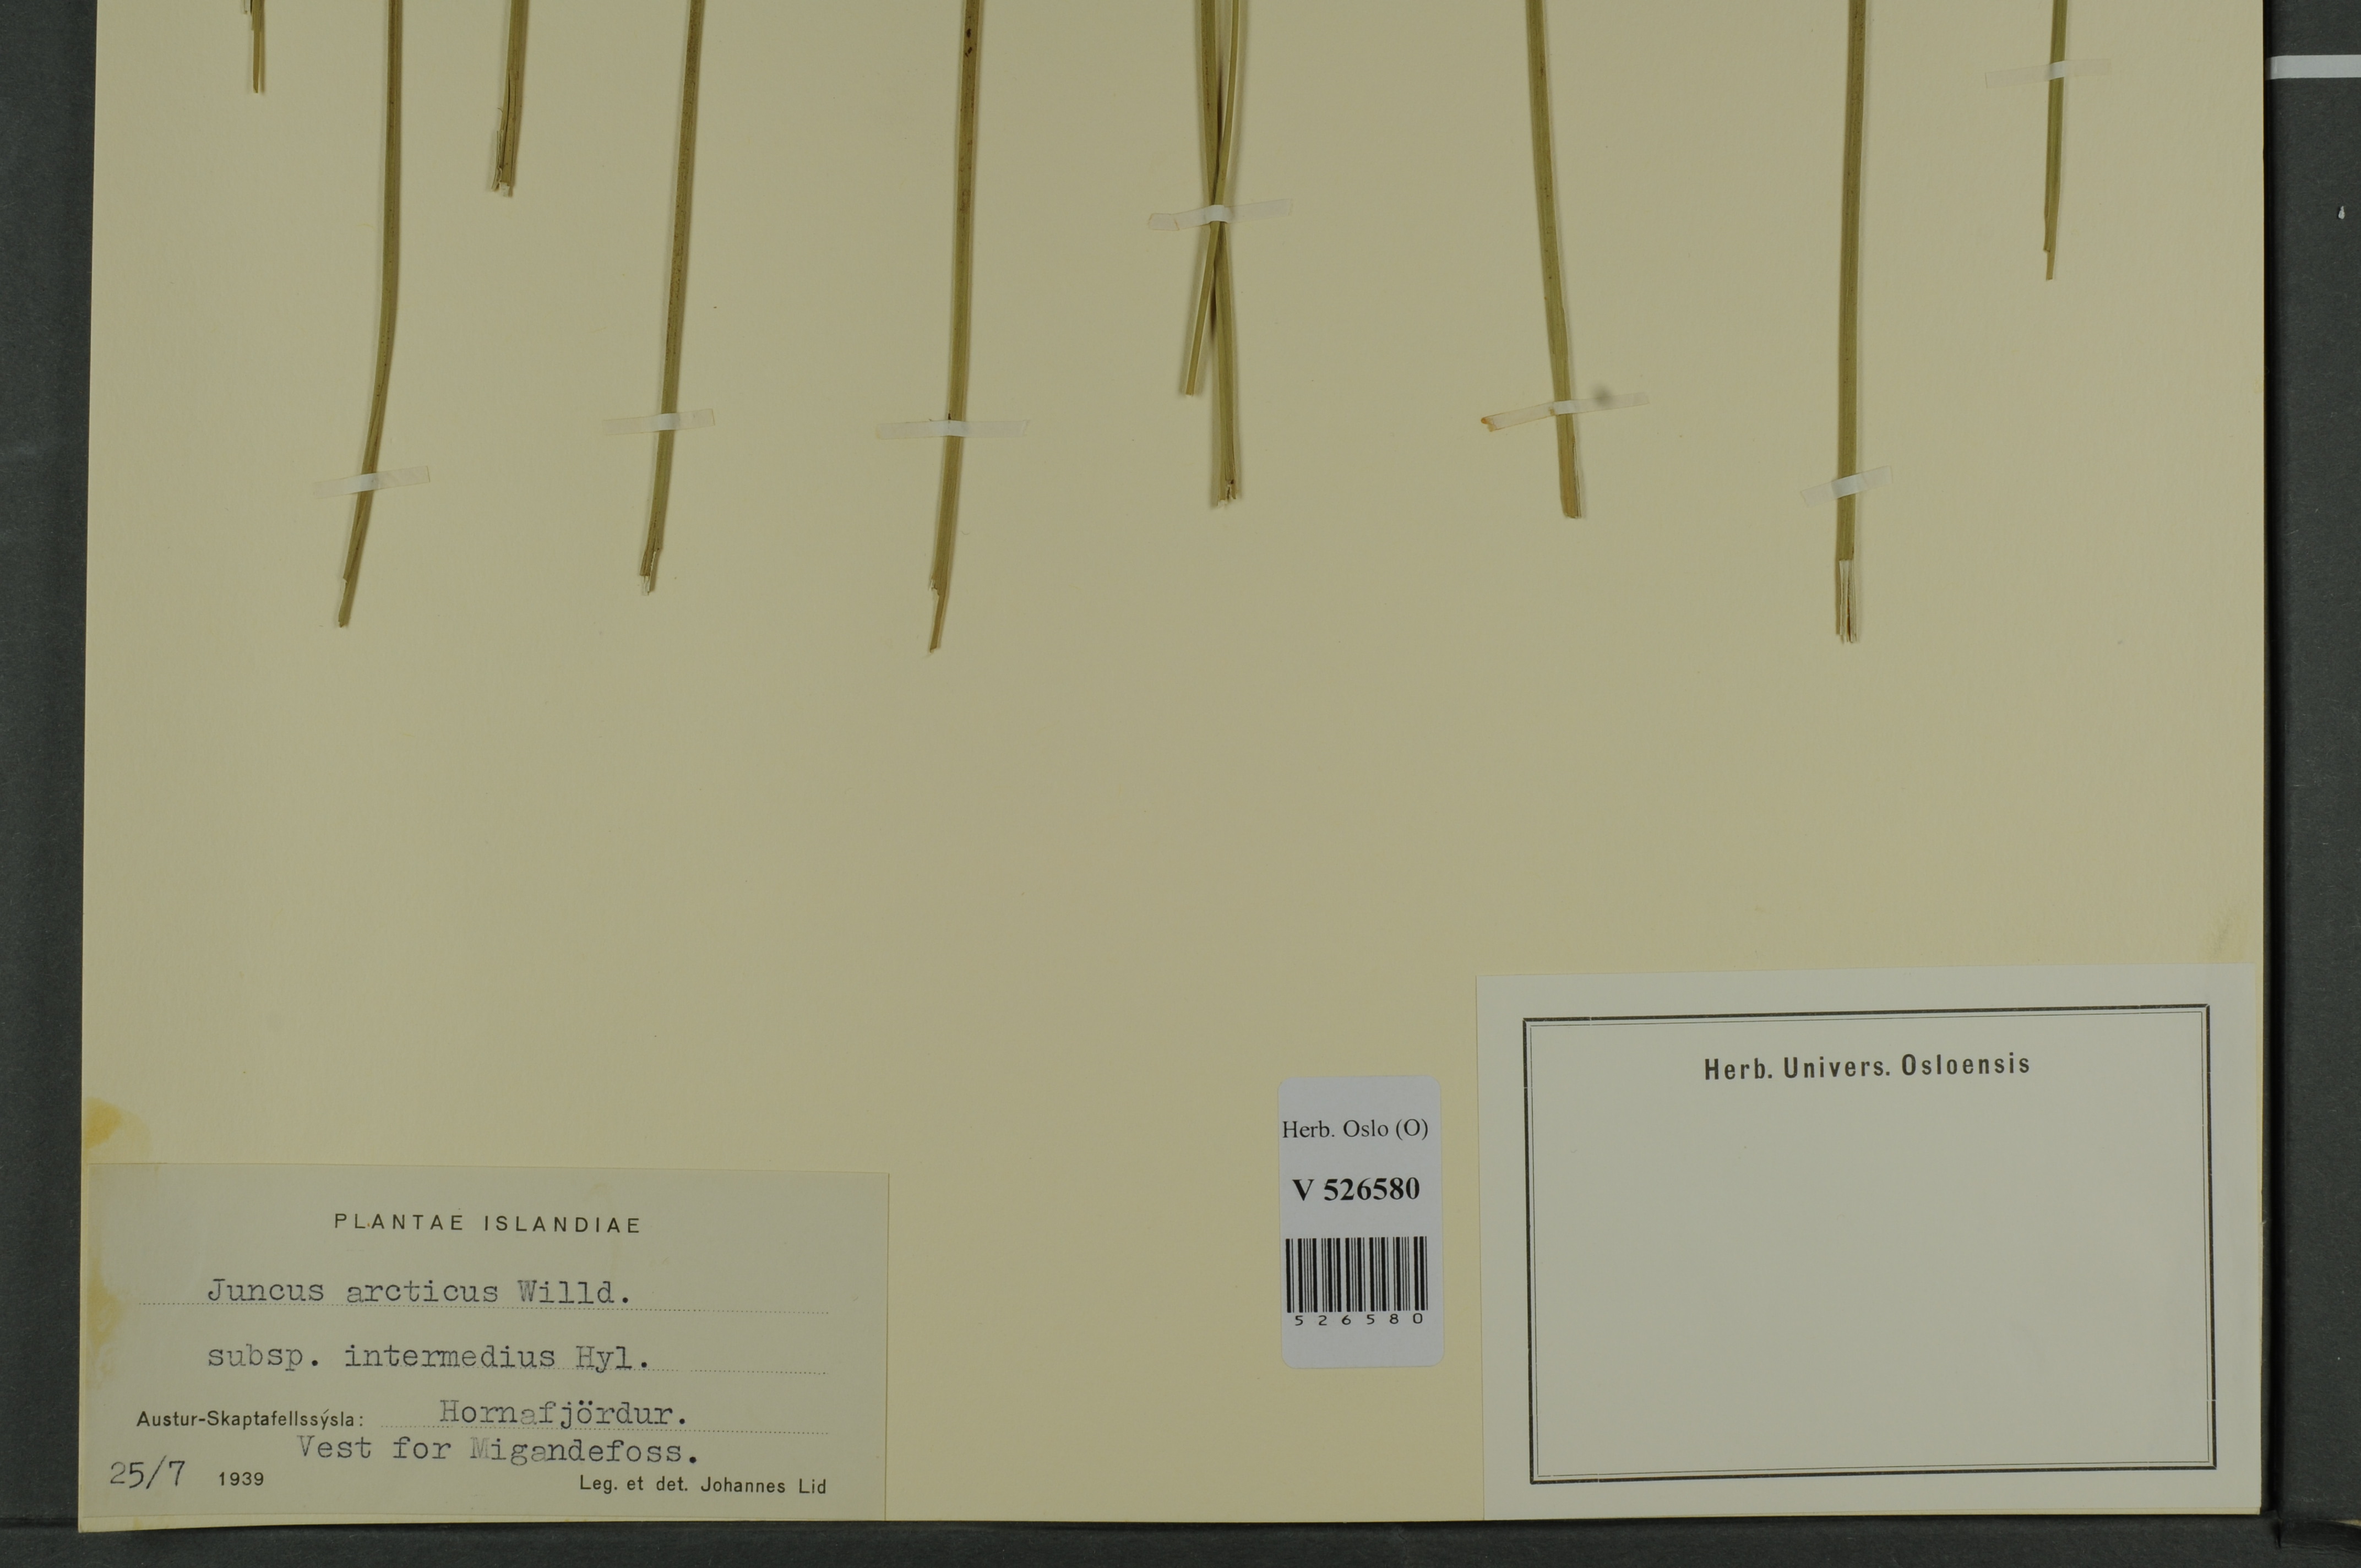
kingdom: Plantae
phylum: Tracheophyta
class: Liliopsida
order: Poales
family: Juncaceae
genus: Juncus
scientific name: Juncus arcticus
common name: Arctic rush
